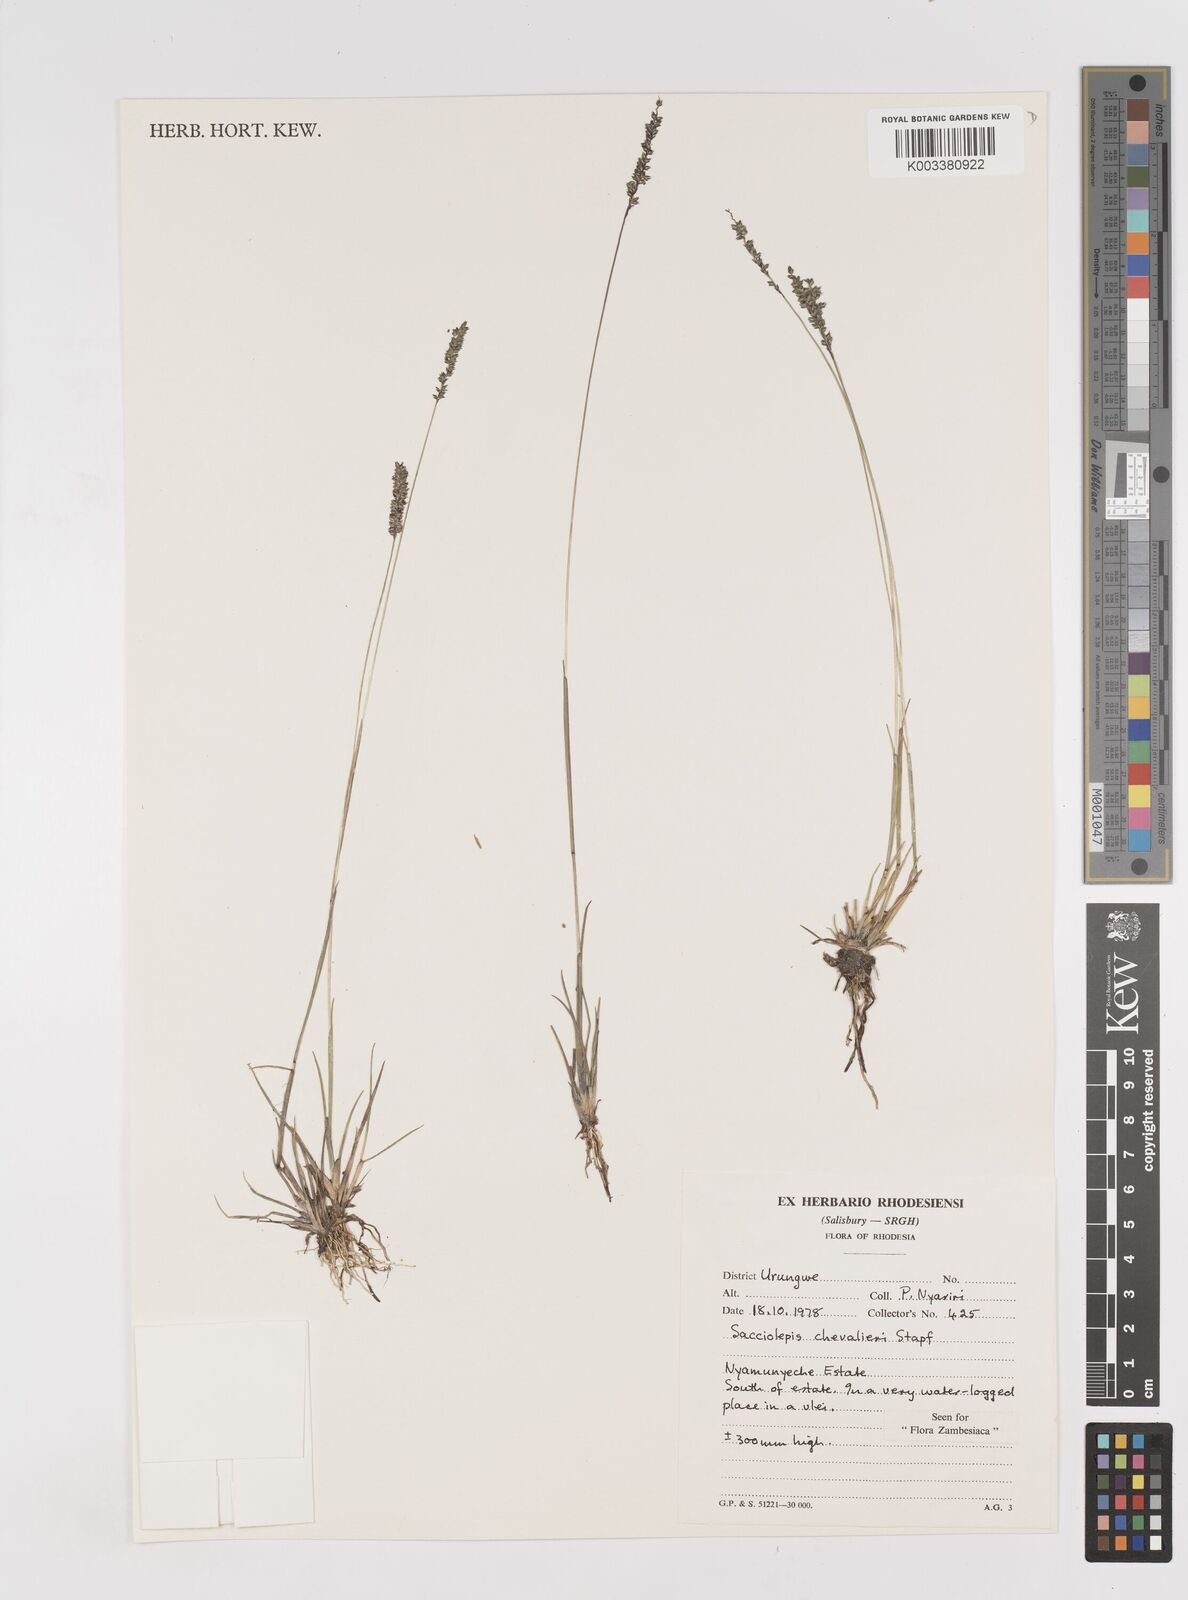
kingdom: Plantae
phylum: Tracheophyta
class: Liliopsida
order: Poales
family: Poaceae
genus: Sacciolepis
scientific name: Sacciolepis chevalieri
